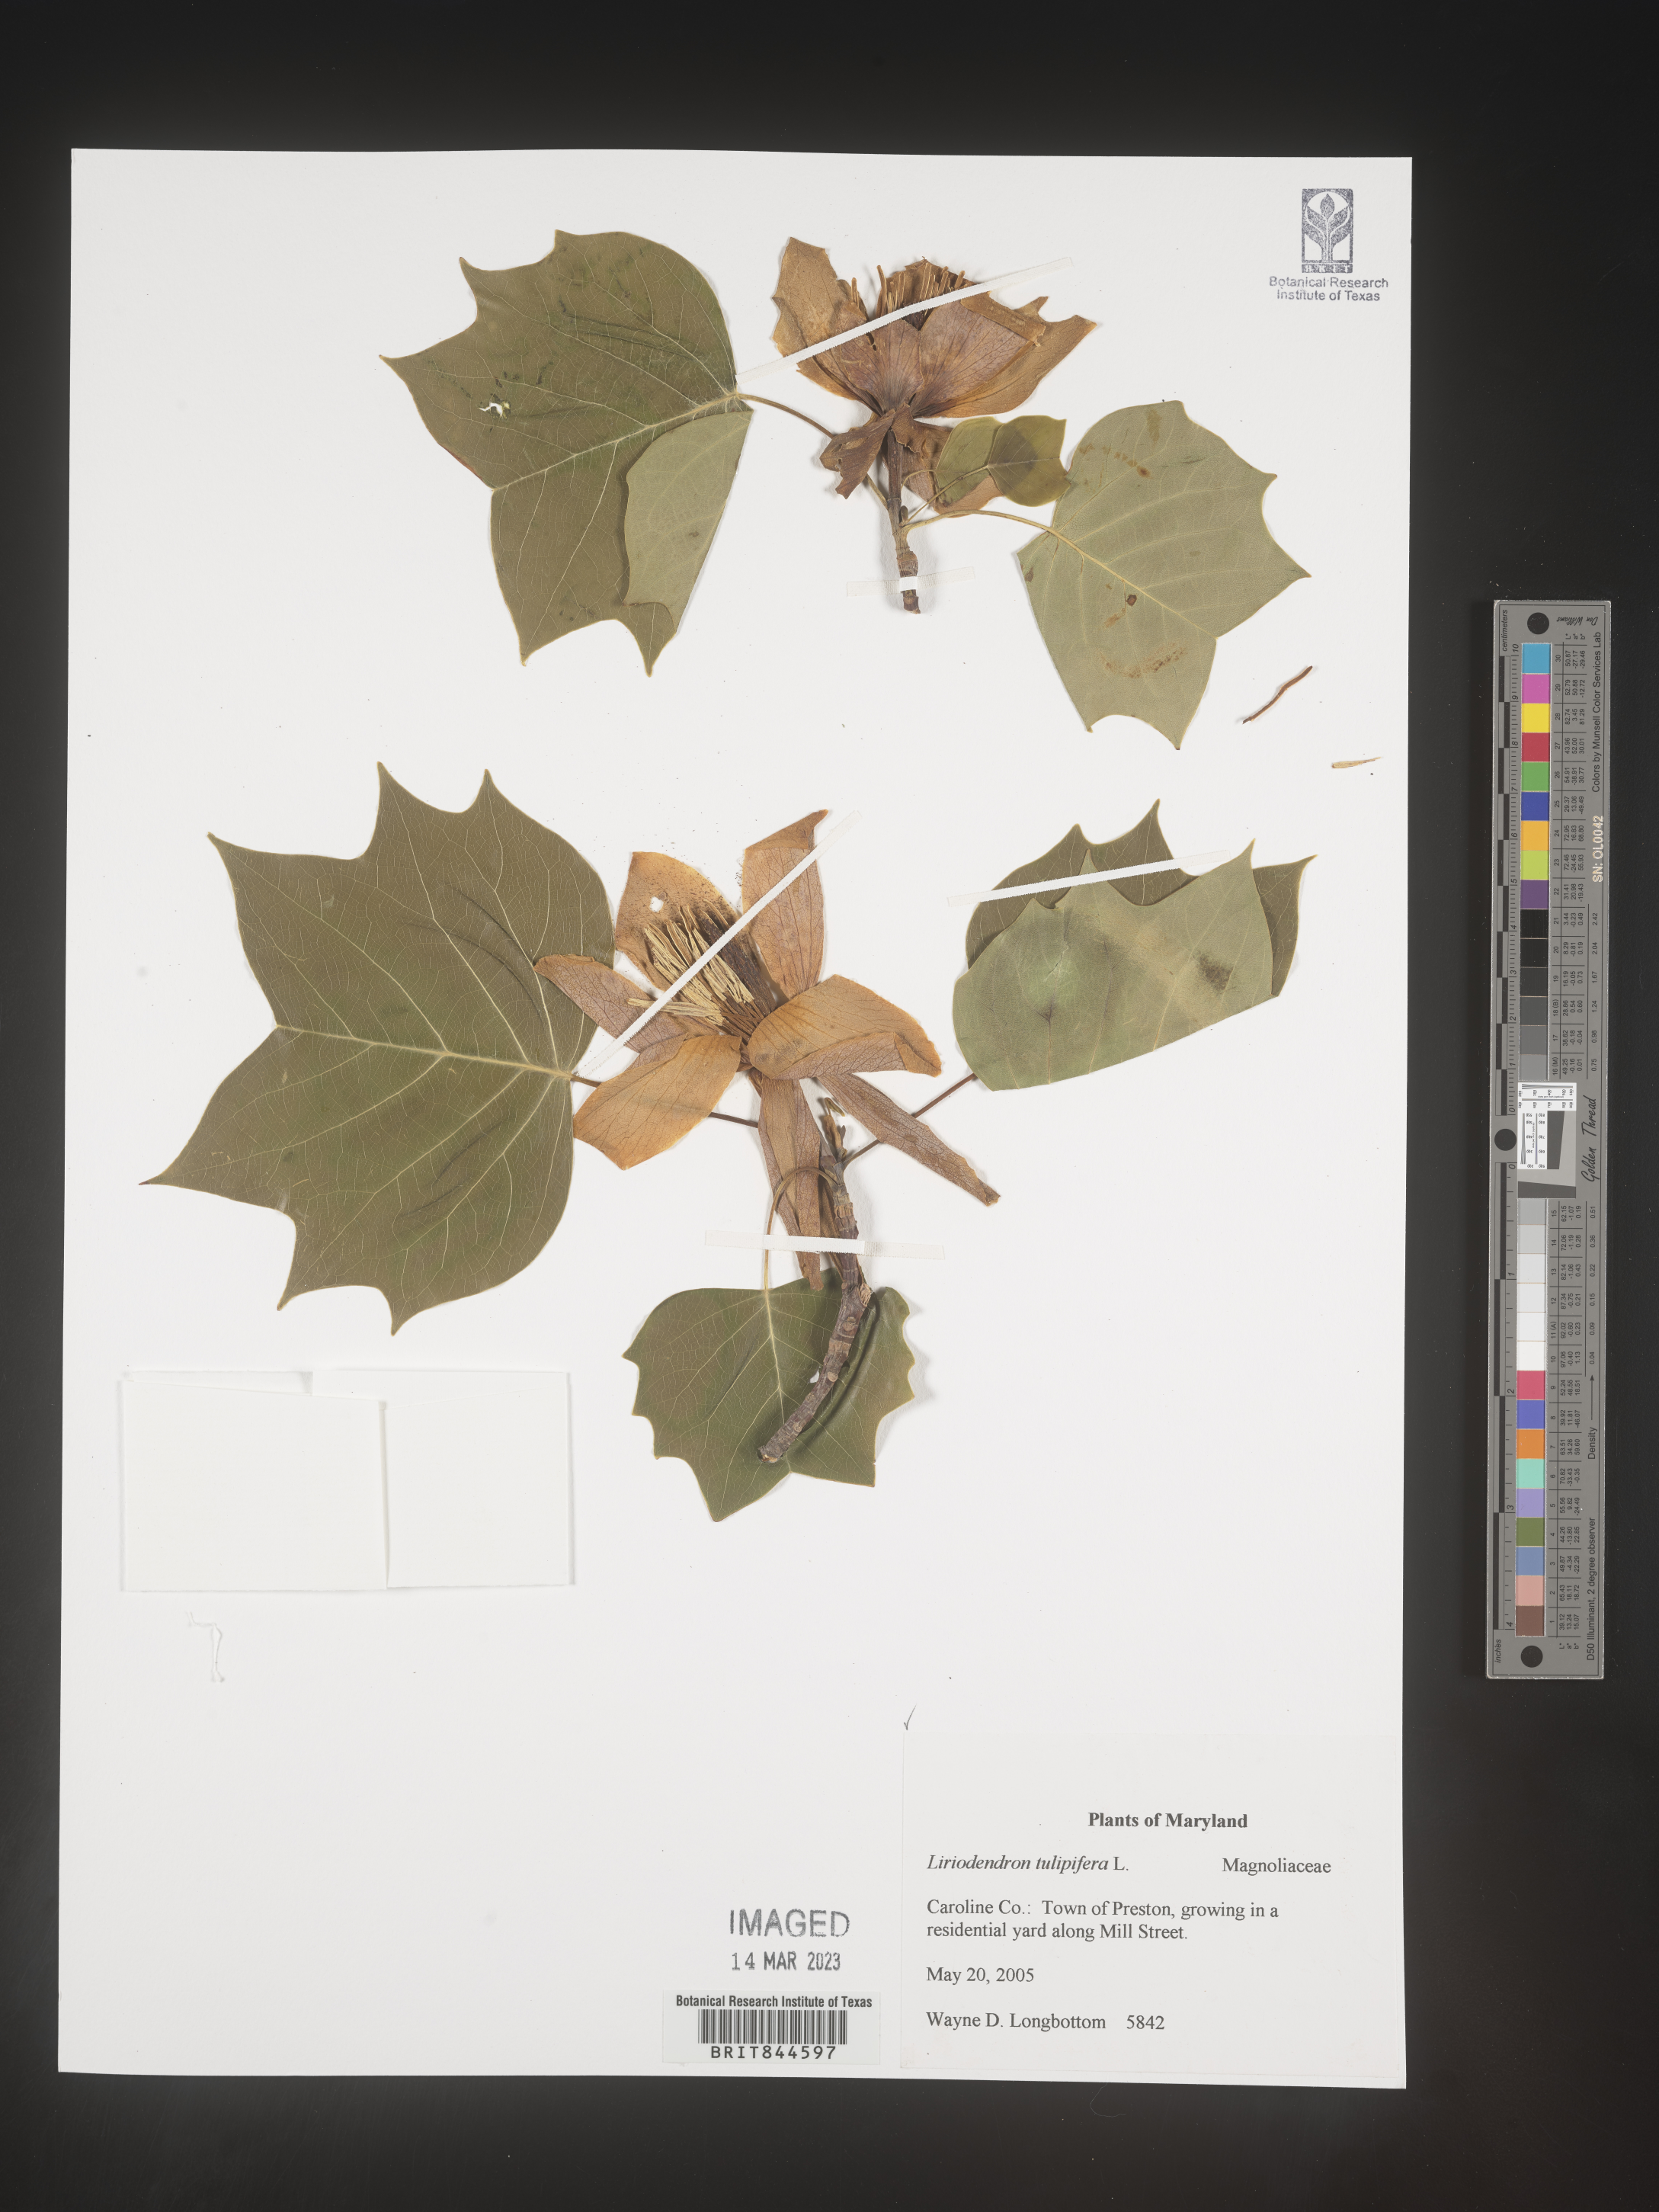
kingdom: Plantae
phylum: Tracheophyta
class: Magnoliopsida
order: Magnoliales
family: Magnoliaceae
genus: Liriodendron
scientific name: Liriodendron tulipifera
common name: Tulip tree
